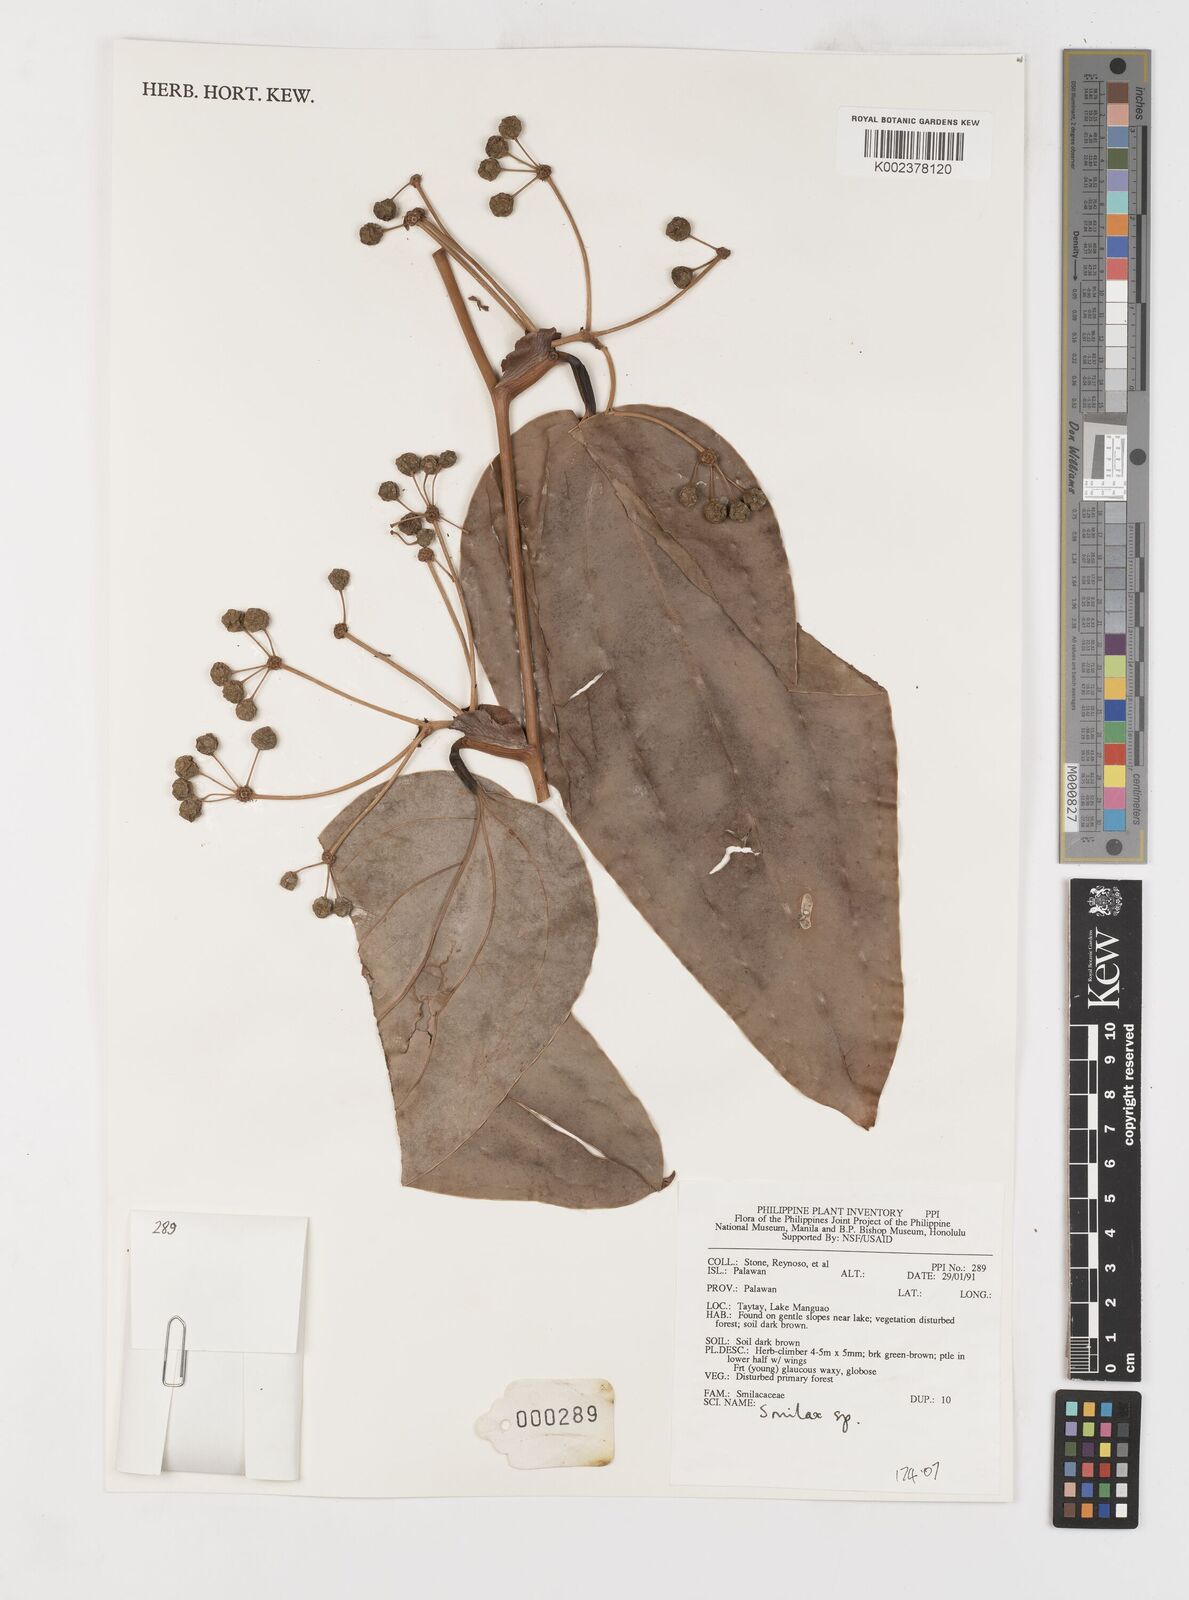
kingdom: Plantae
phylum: Tracheophyta
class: Liliopsida
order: Liliales
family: Smilacaceae
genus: Smilax
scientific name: Smilax
